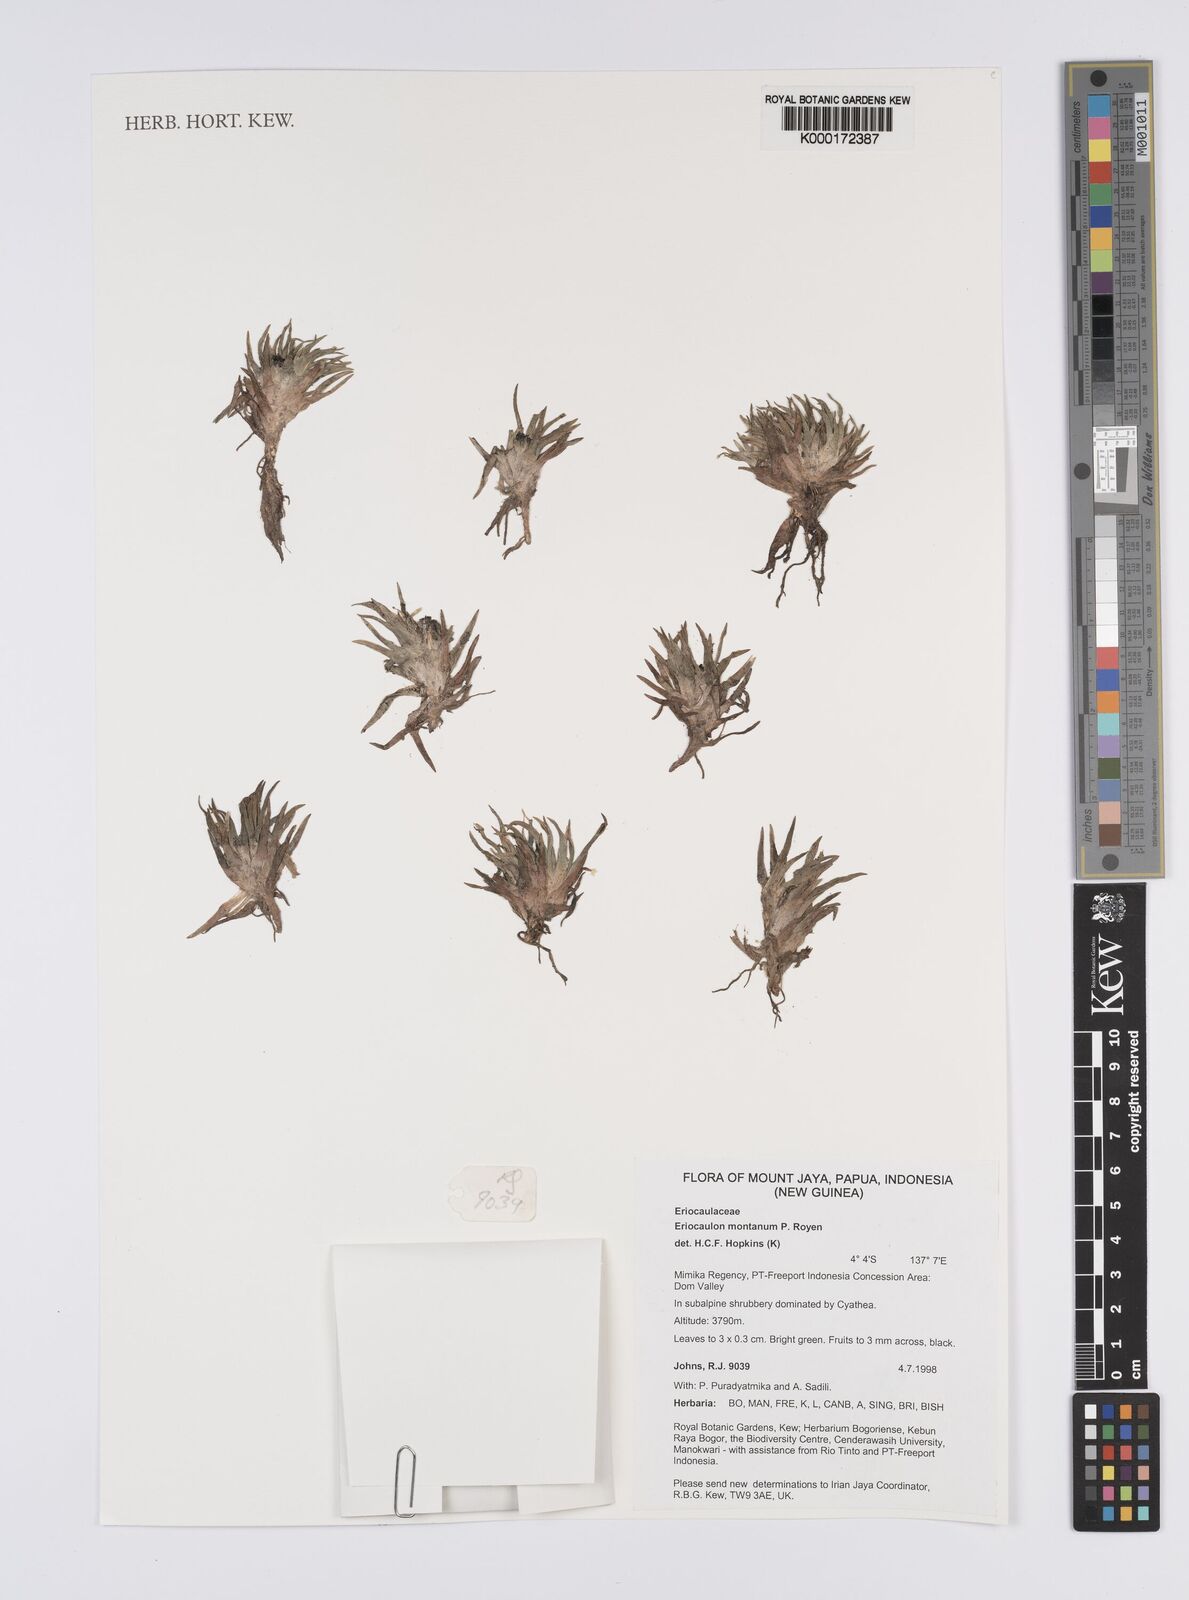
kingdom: Plantae
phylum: Tracheophyta
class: Liliopsida
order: Poales
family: Eriocaulaceae
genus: Eriocaulon
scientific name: Eriocaulon montanum
